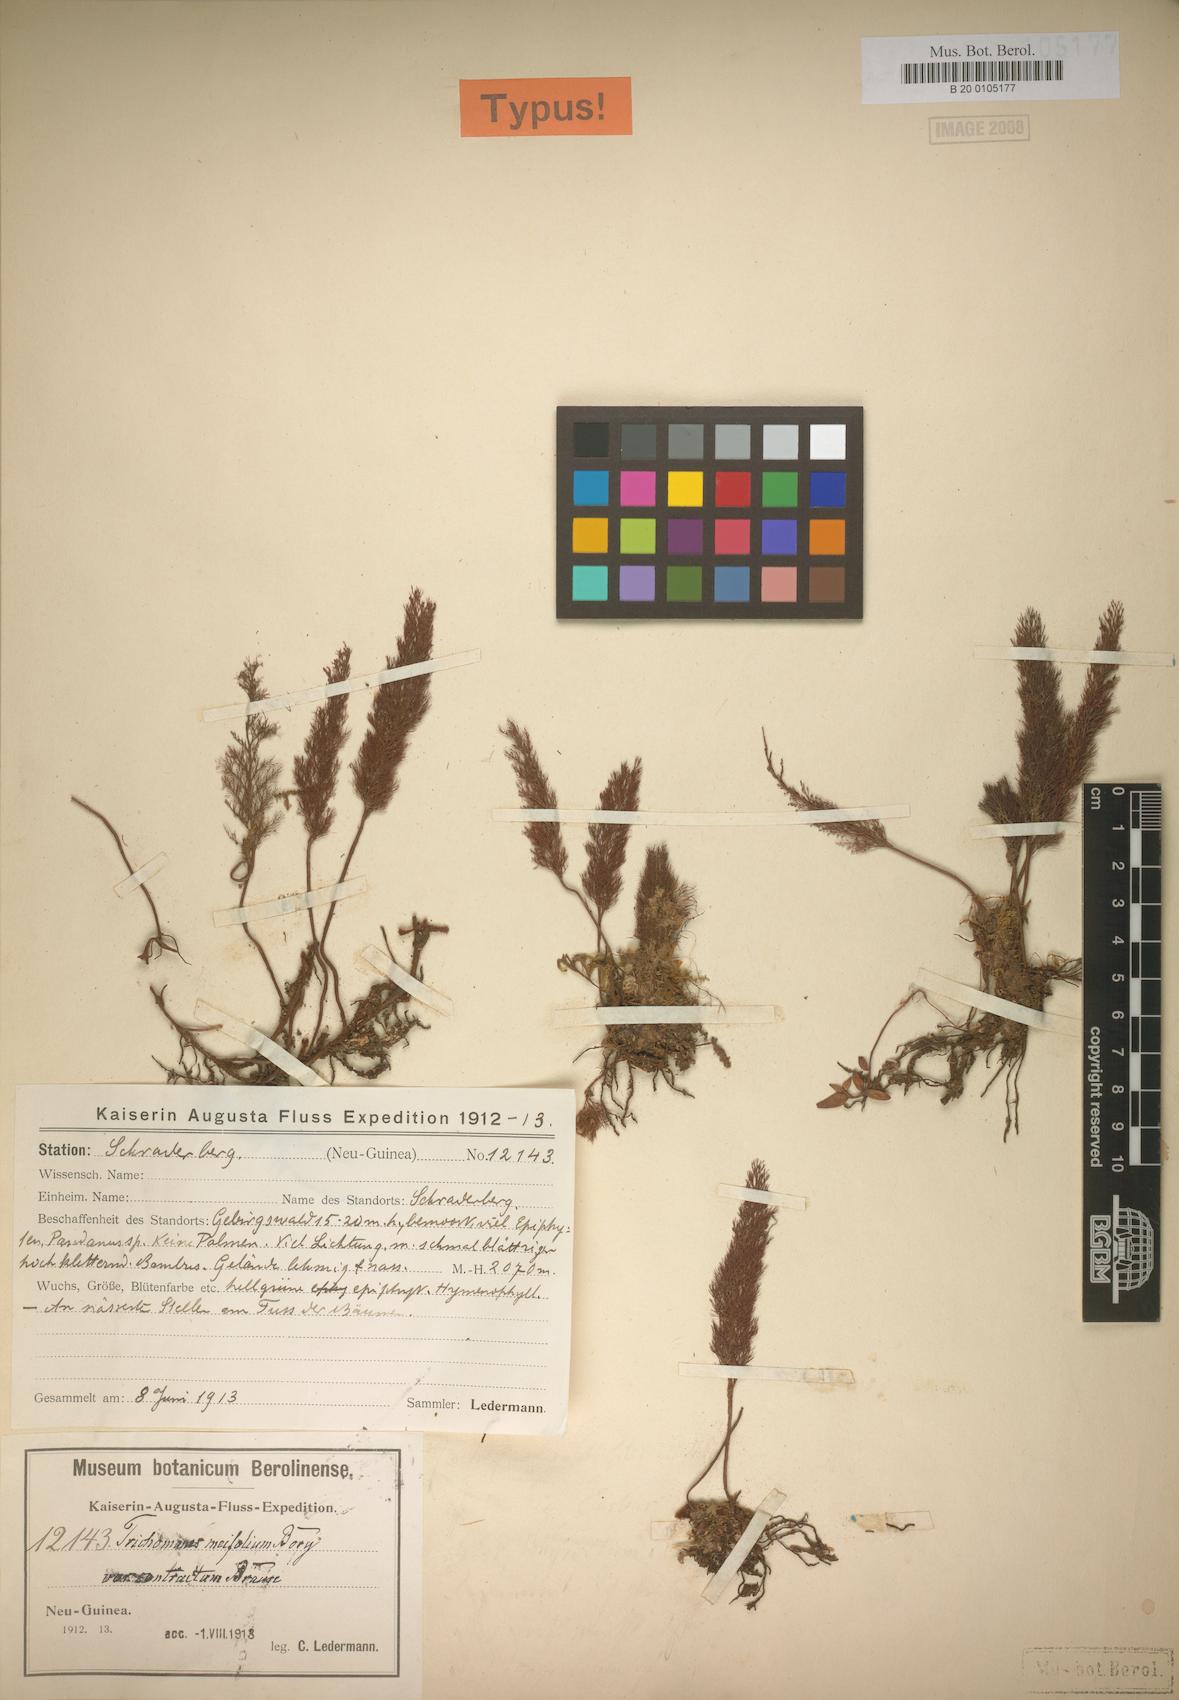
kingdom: Plantae
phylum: Tracheophyta
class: Polypodiopsida
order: Hymenophyllales
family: Hymenophyllaceae
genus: Abrodictyum
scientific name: Abrodictyum parviflorum
